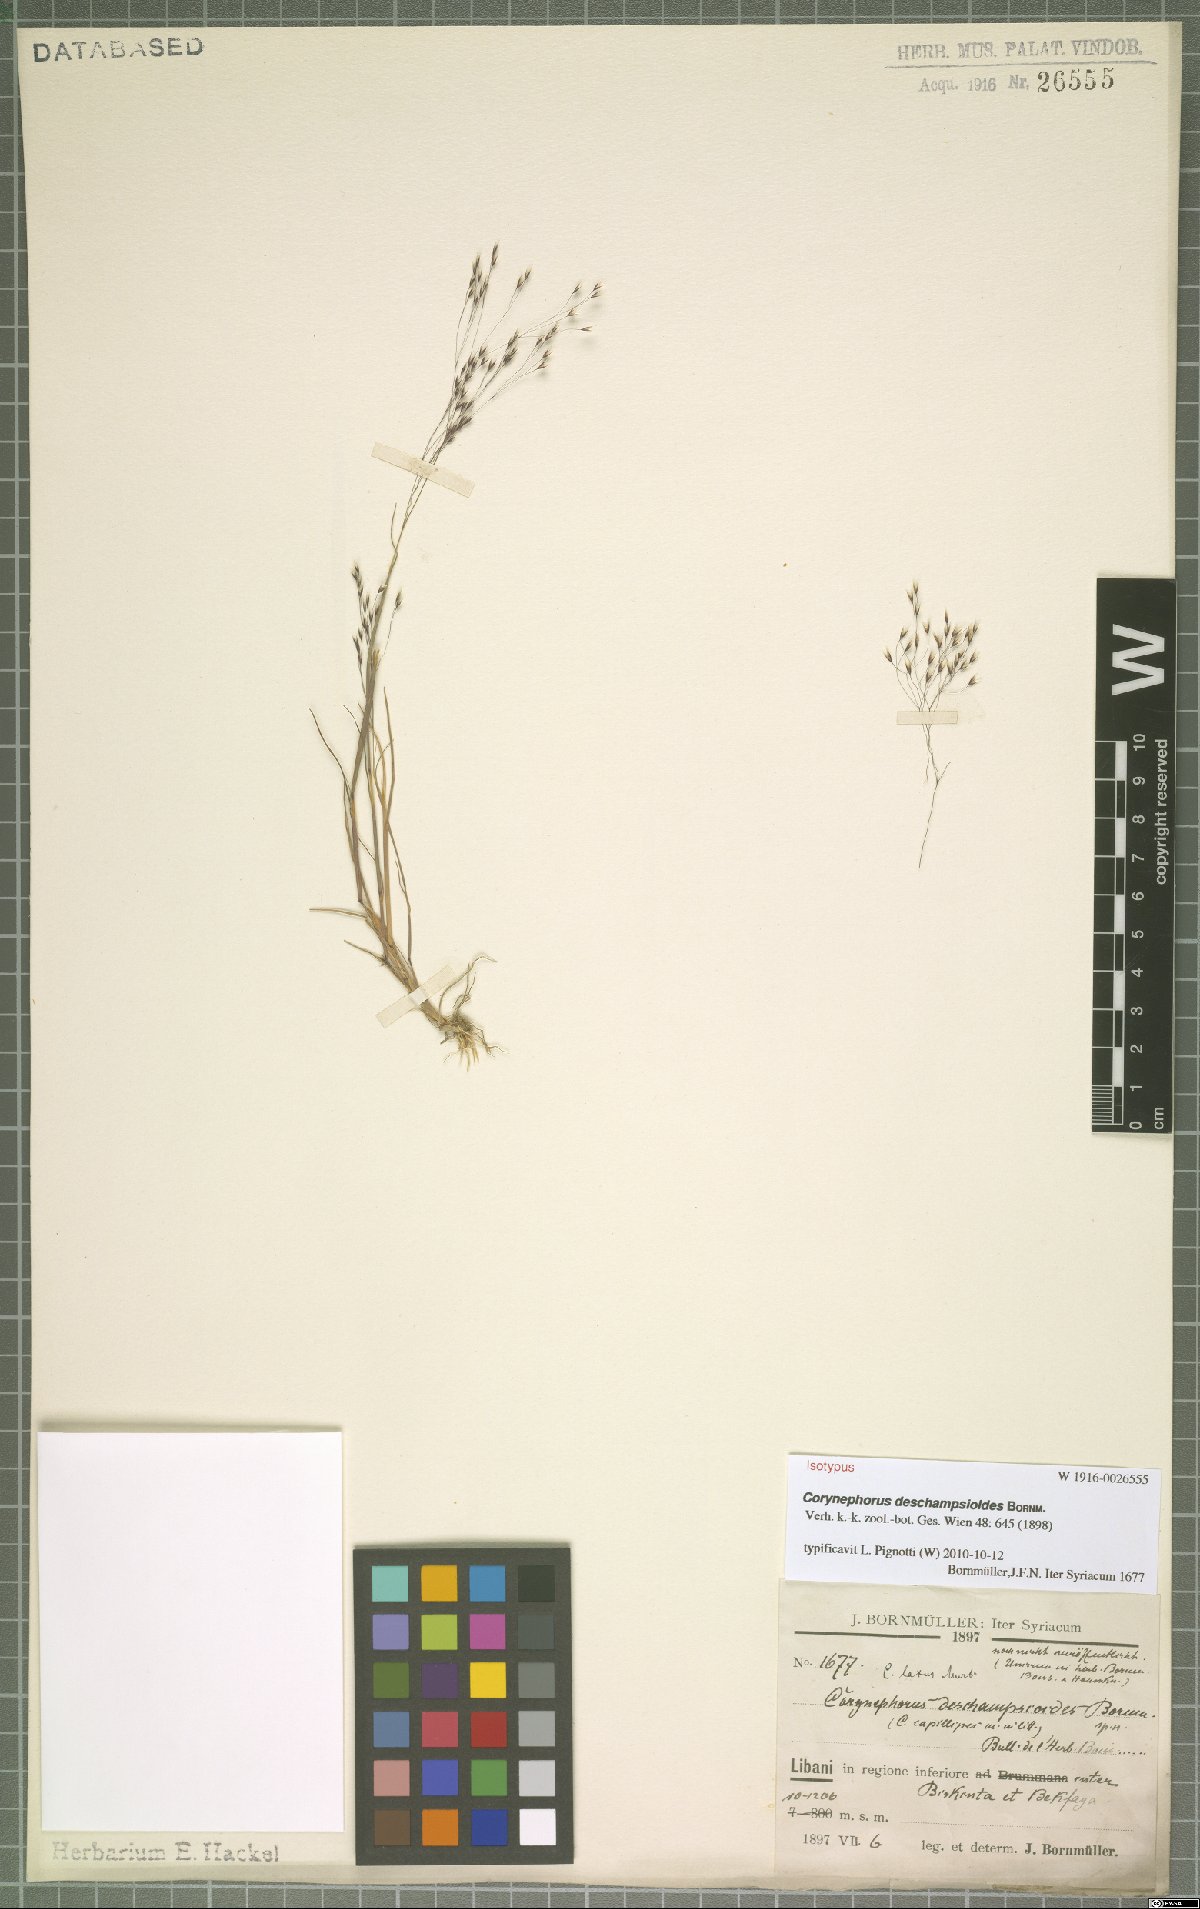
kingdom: Plantae
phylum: Tracheophyta
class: Liliopsida
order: Poales
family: Poaceae
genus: Corynephorus
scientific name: Corynephorus deschampsioides
